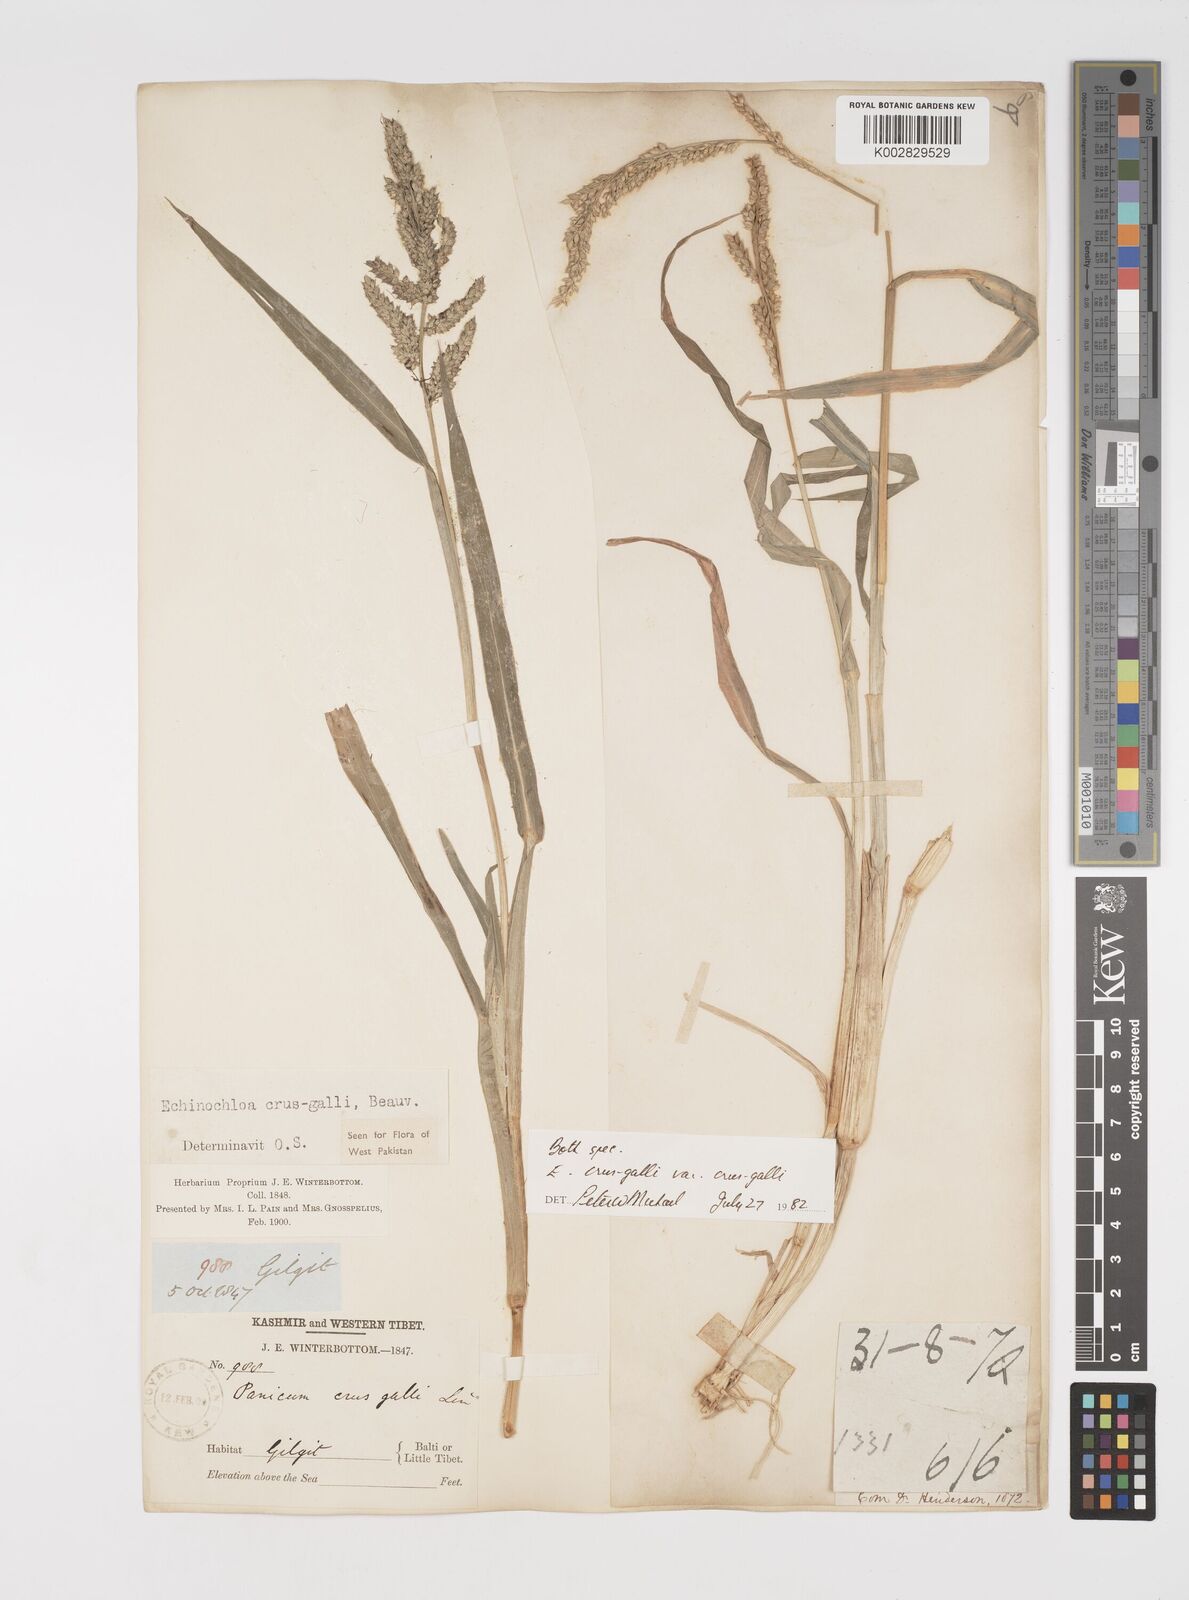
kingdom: Plantae
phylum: Tracheophyta
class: Liliopsida
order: Poales
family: Poaceae
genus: Echinochloa
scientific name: Echinochloa crus-galli
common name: Cockspur
